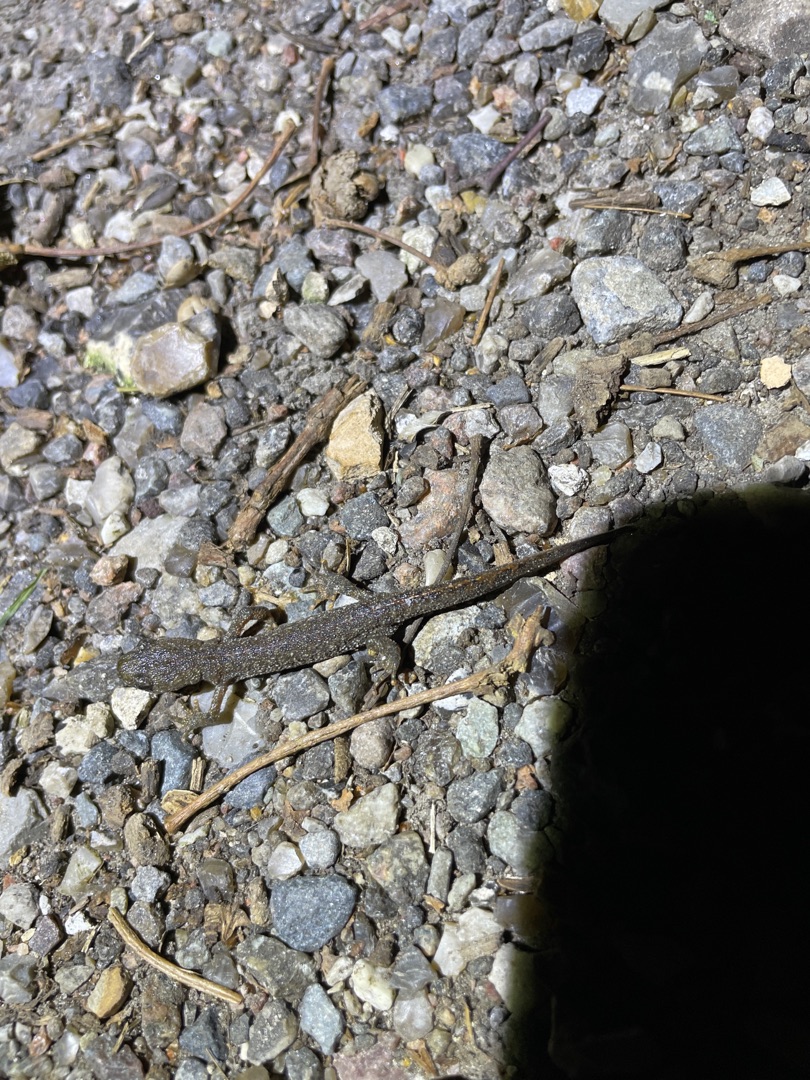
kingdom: Animalia
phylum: Chordata
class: Amphibia
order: Caudata
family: Salamandridae
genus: Triturus
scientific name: Triturus cristatus
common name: Stor vandsalamander
